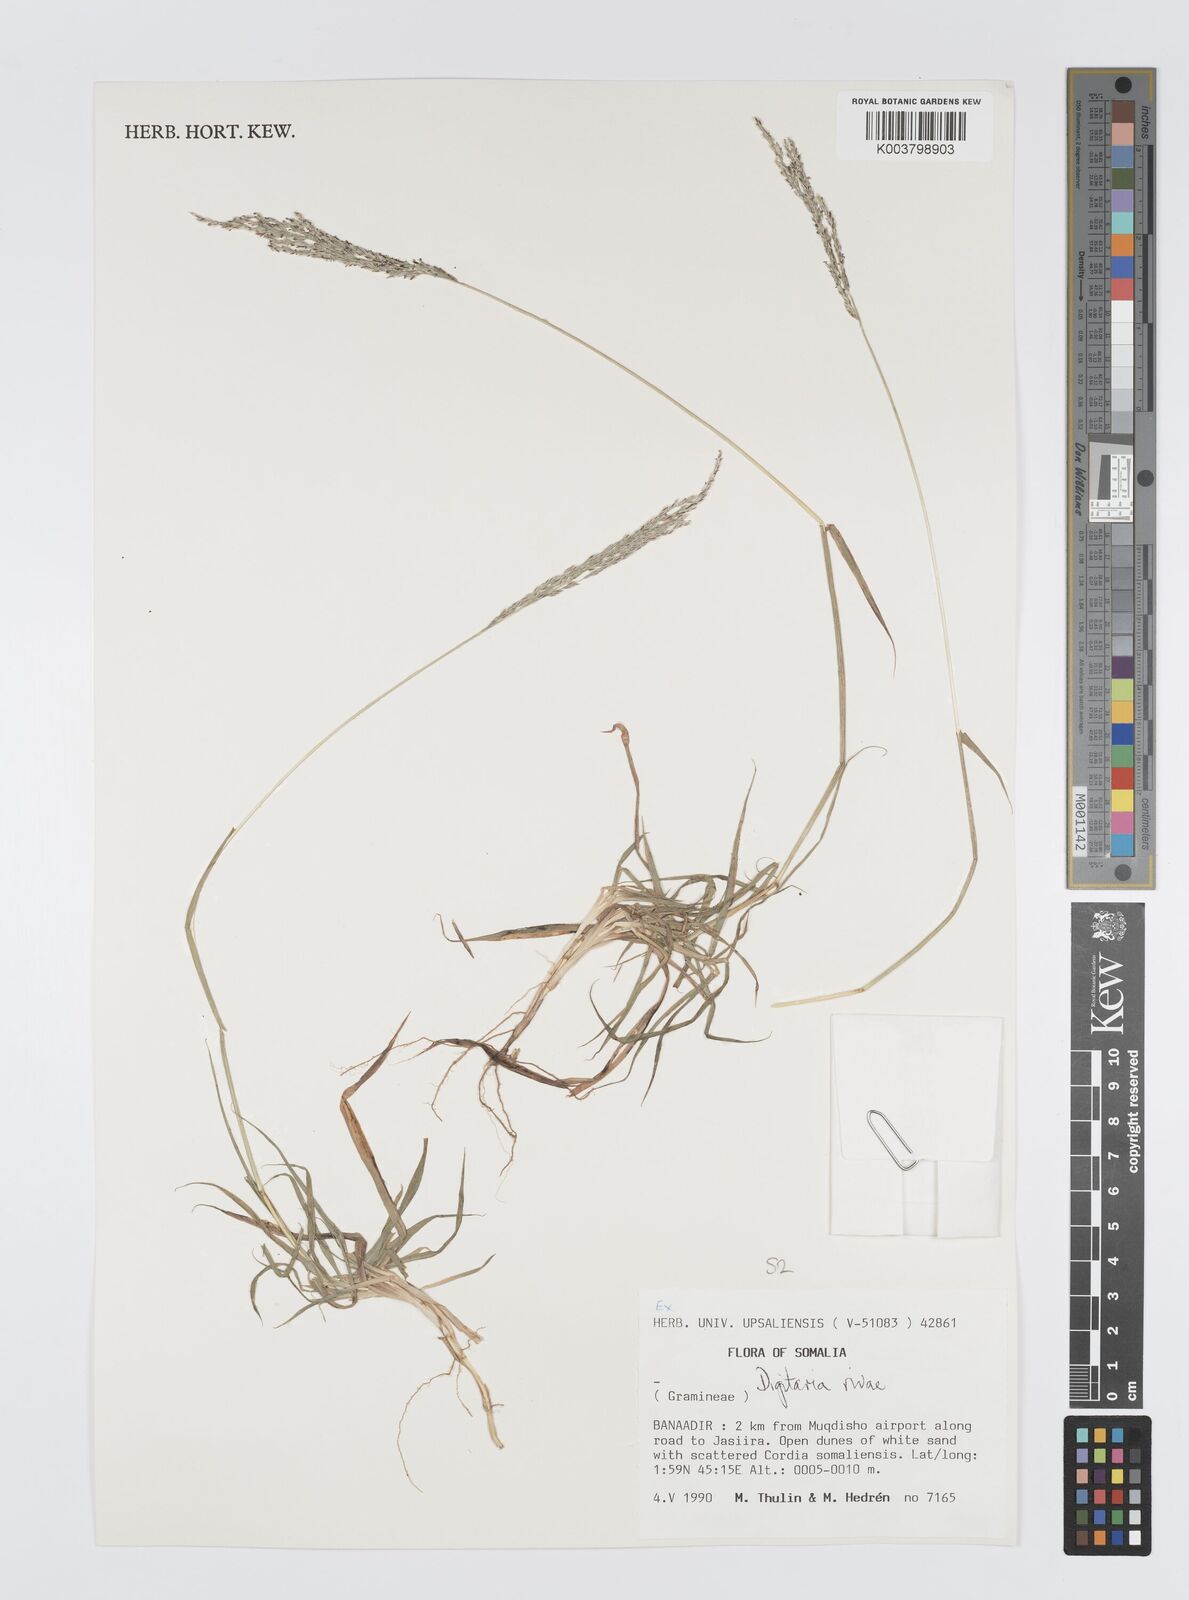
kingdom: Plantae
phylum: Tracheophyta
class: Liliopsida
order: Poales
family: Poaceae
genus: Digitaria
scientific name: Digitaria rivae
